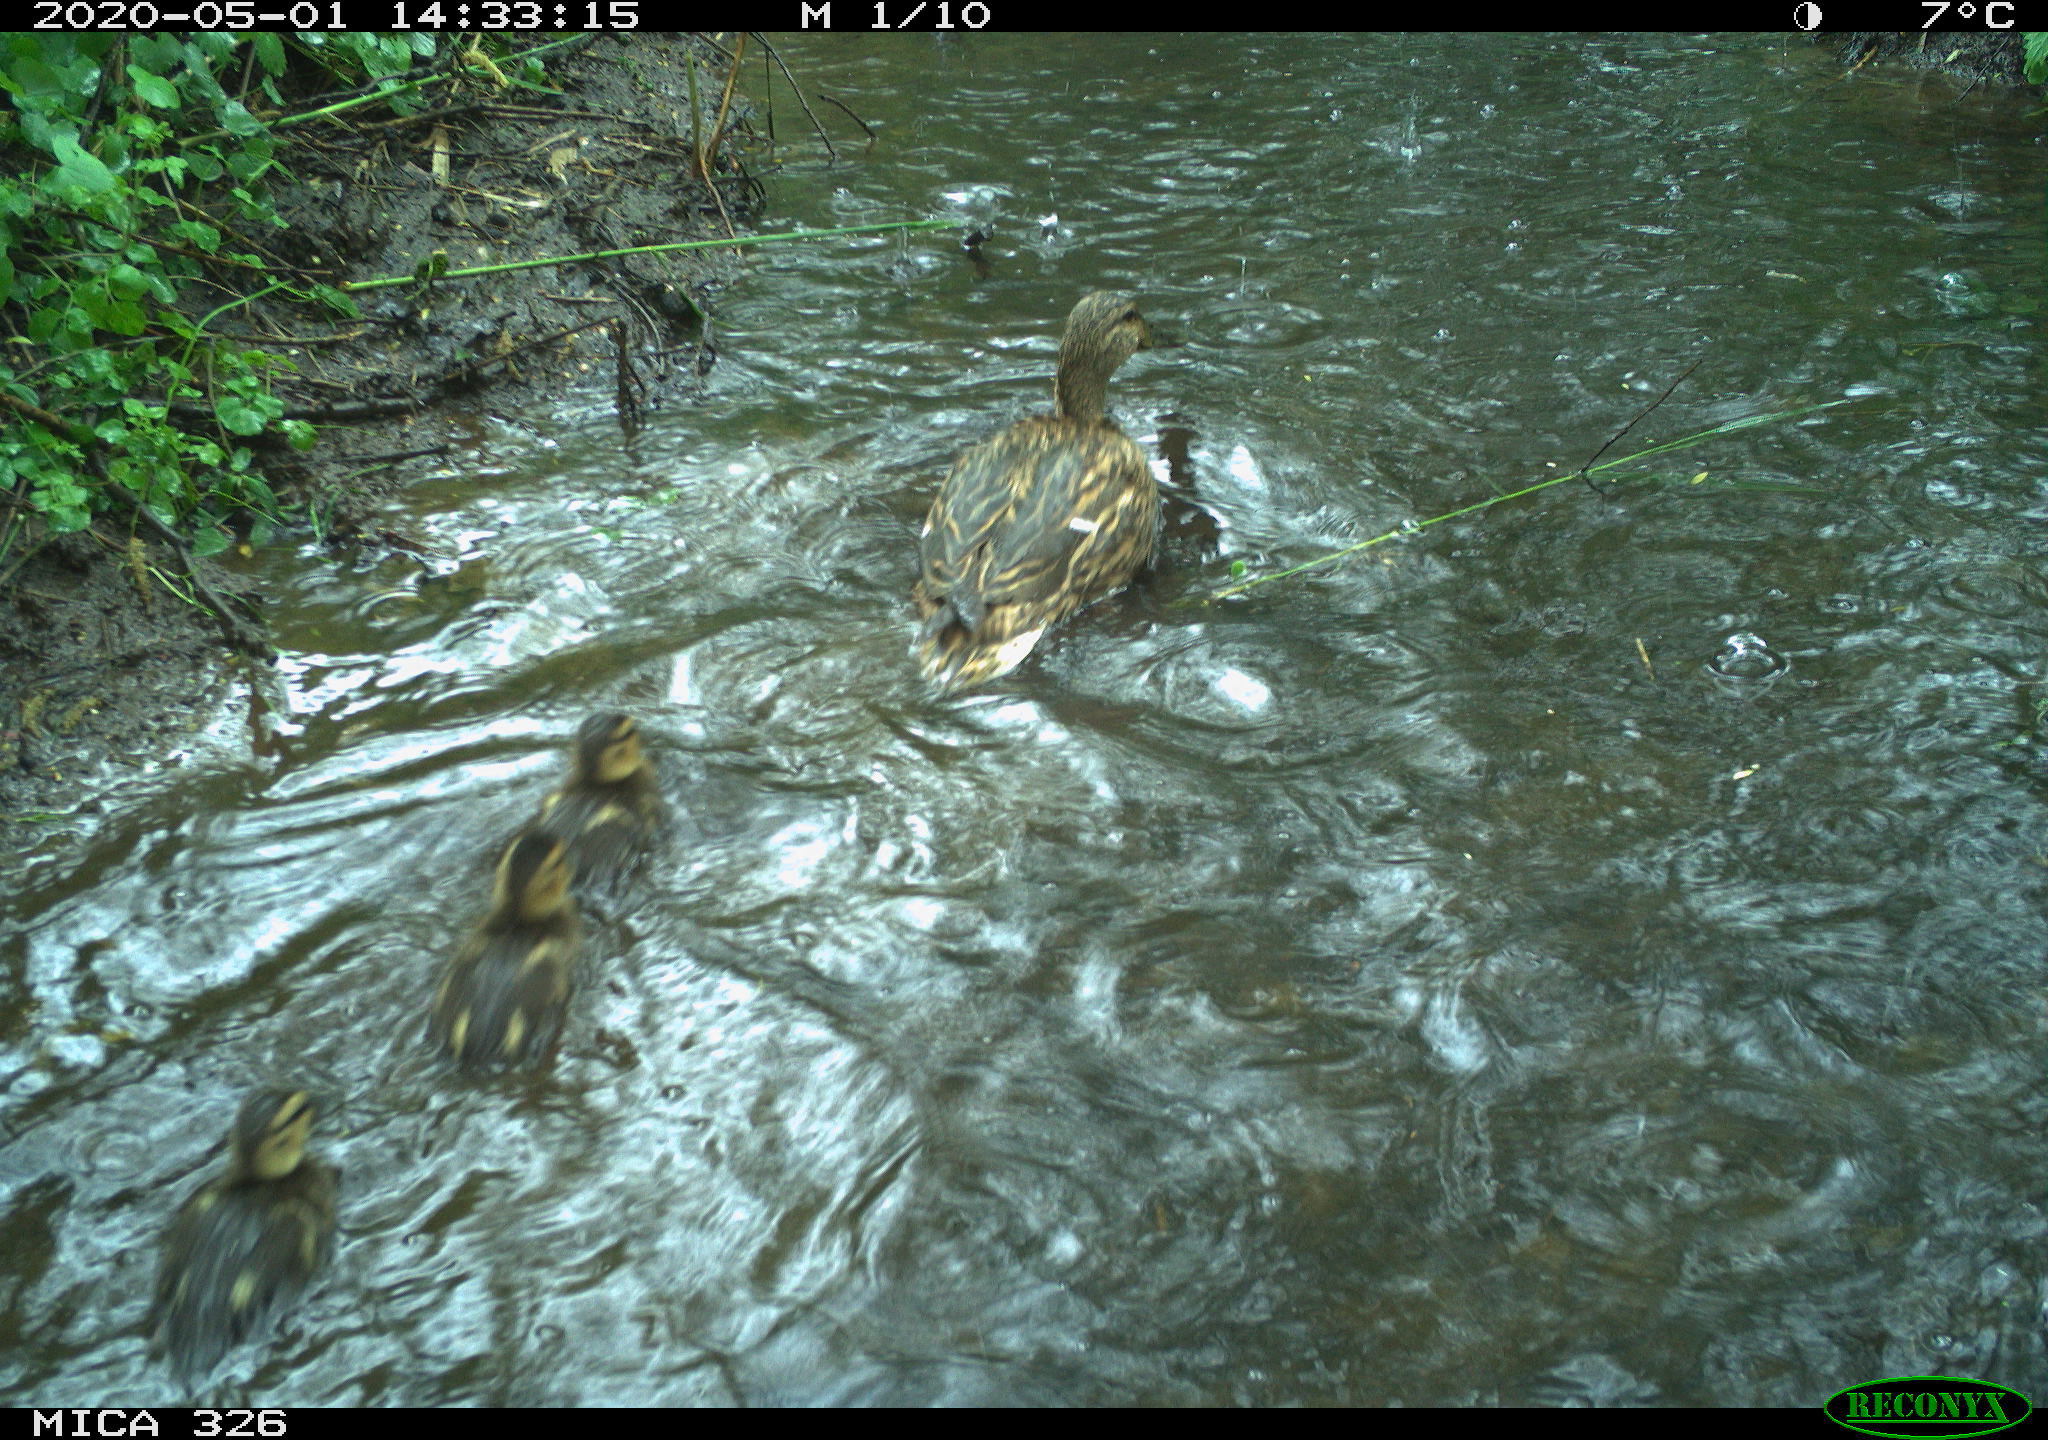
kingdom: Animalia
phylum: Chordata
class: Aves
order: Anseriformes
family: Anatidae
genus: Anas
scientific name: Anas platyrhynchos
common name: Mallard
